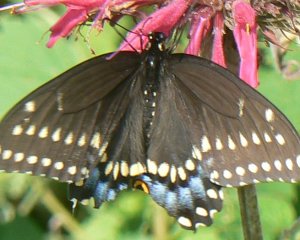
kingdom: Animalia
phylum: Arthropoda
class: Insecta
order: Lepidoptera
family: Papilionidae
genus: Papilio
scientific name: Papilio polyxenes
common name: Black Swallowtail
